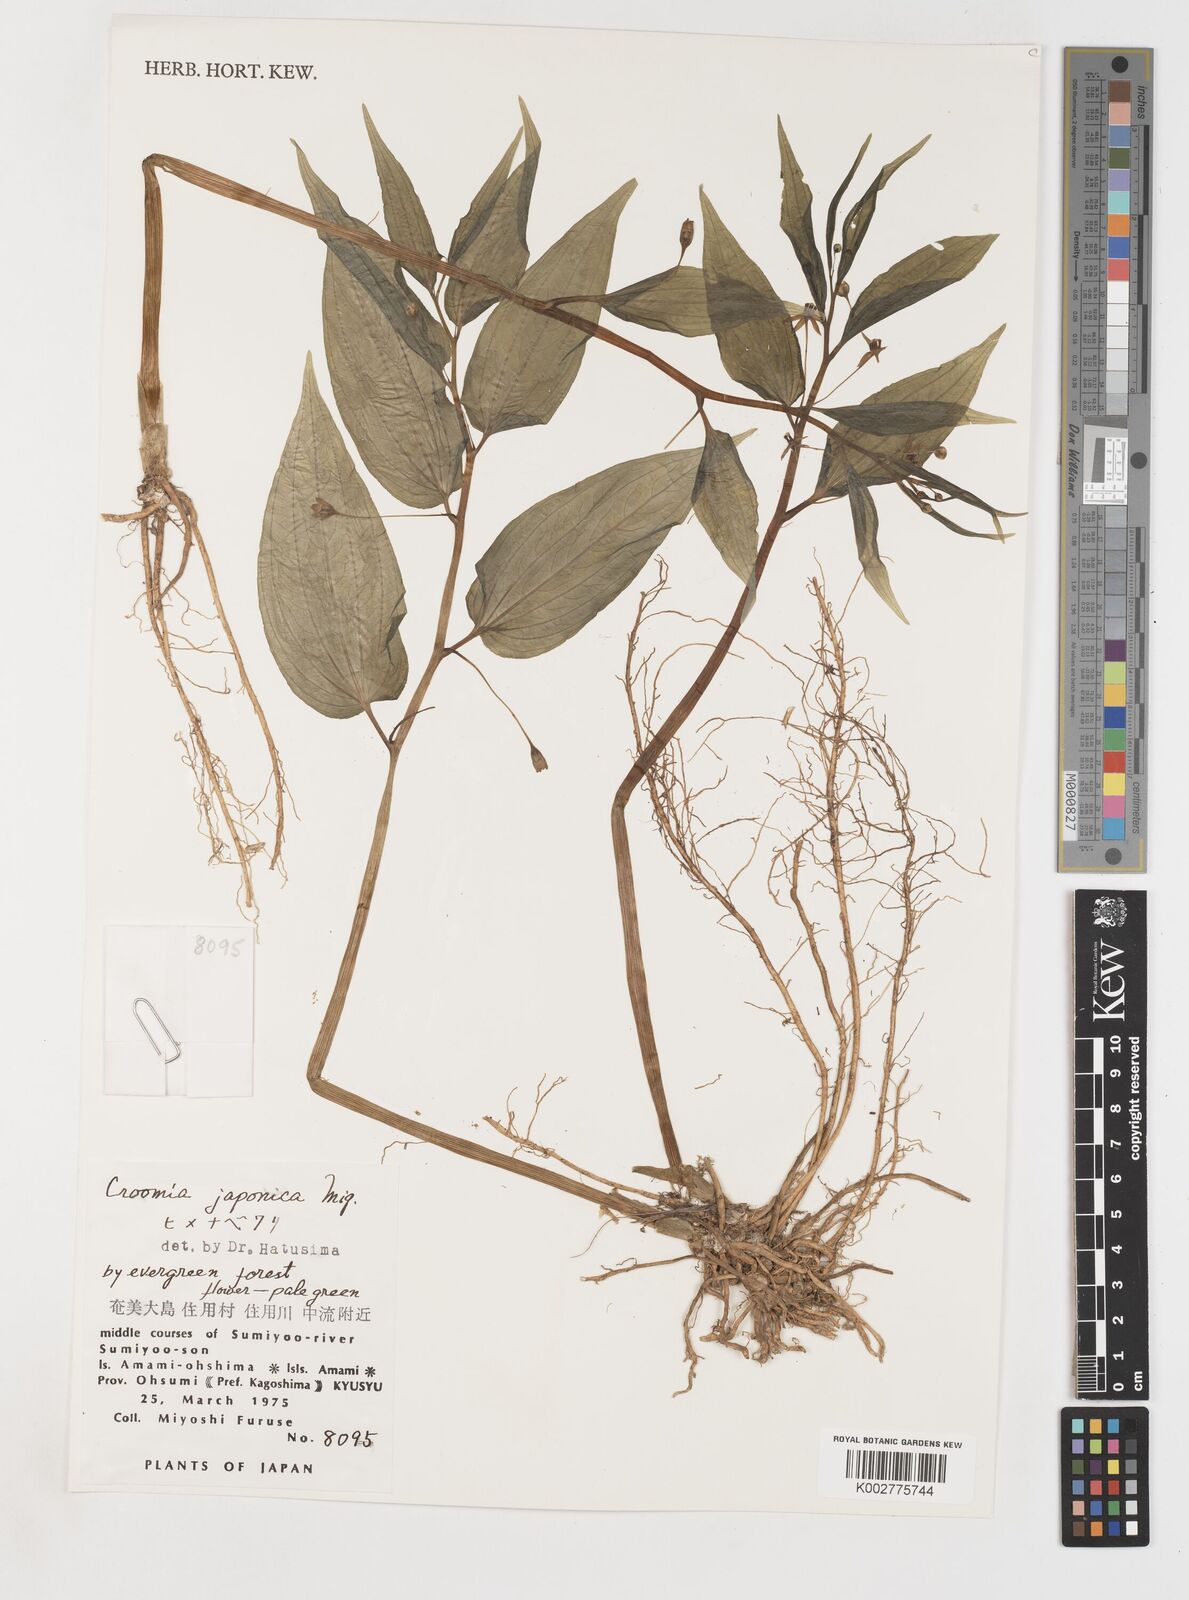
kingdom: Plantae
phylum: Tracheophyta
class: Liliopsida
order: Pandanales
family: Stemonaceae
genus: Croomia
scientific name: Croomia japonica
